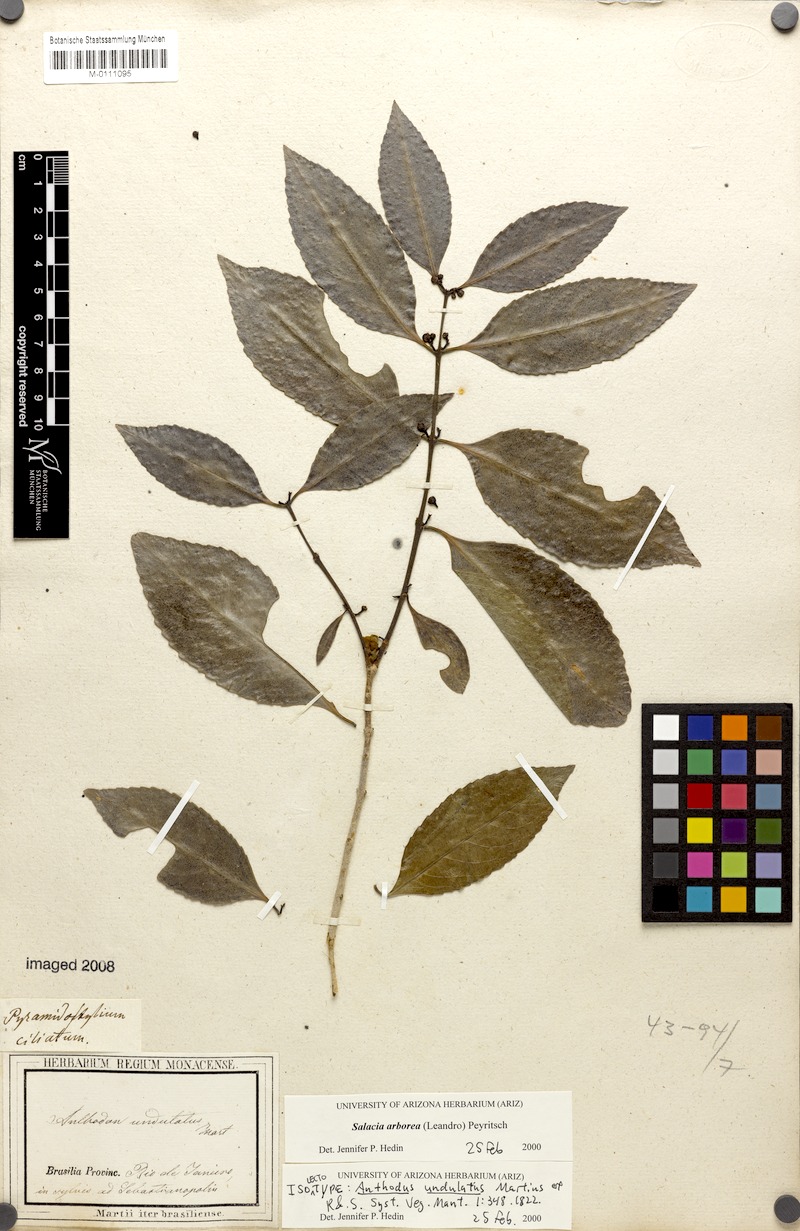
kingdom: Plantae
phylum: Tracheophyta
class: Magnoliopsida
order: Celastrales
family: Celastraceae
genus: Salacia
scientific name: Salacia arborea
